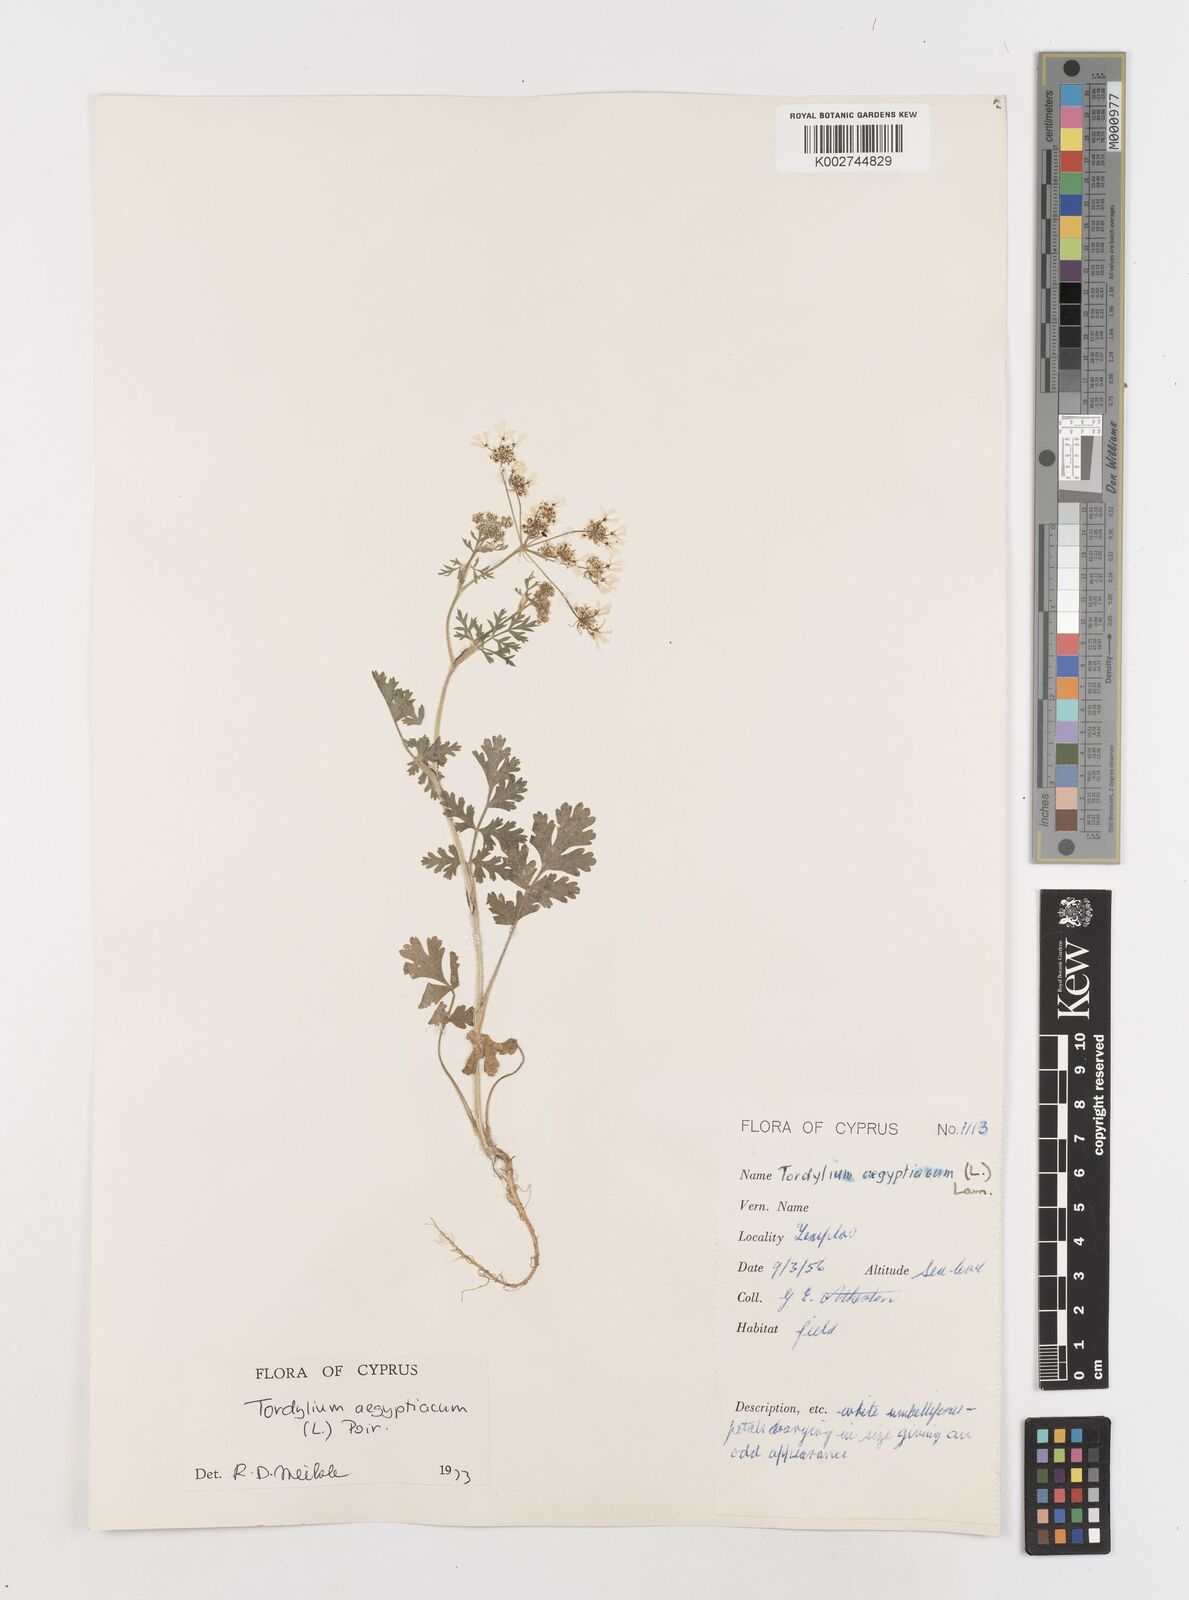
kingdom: Plantae
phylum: Tracheophyta
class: Magnoliopsida
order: Apiales
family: Apiaceae
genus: Tordylium
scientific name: Tordylium aegyptiacum
